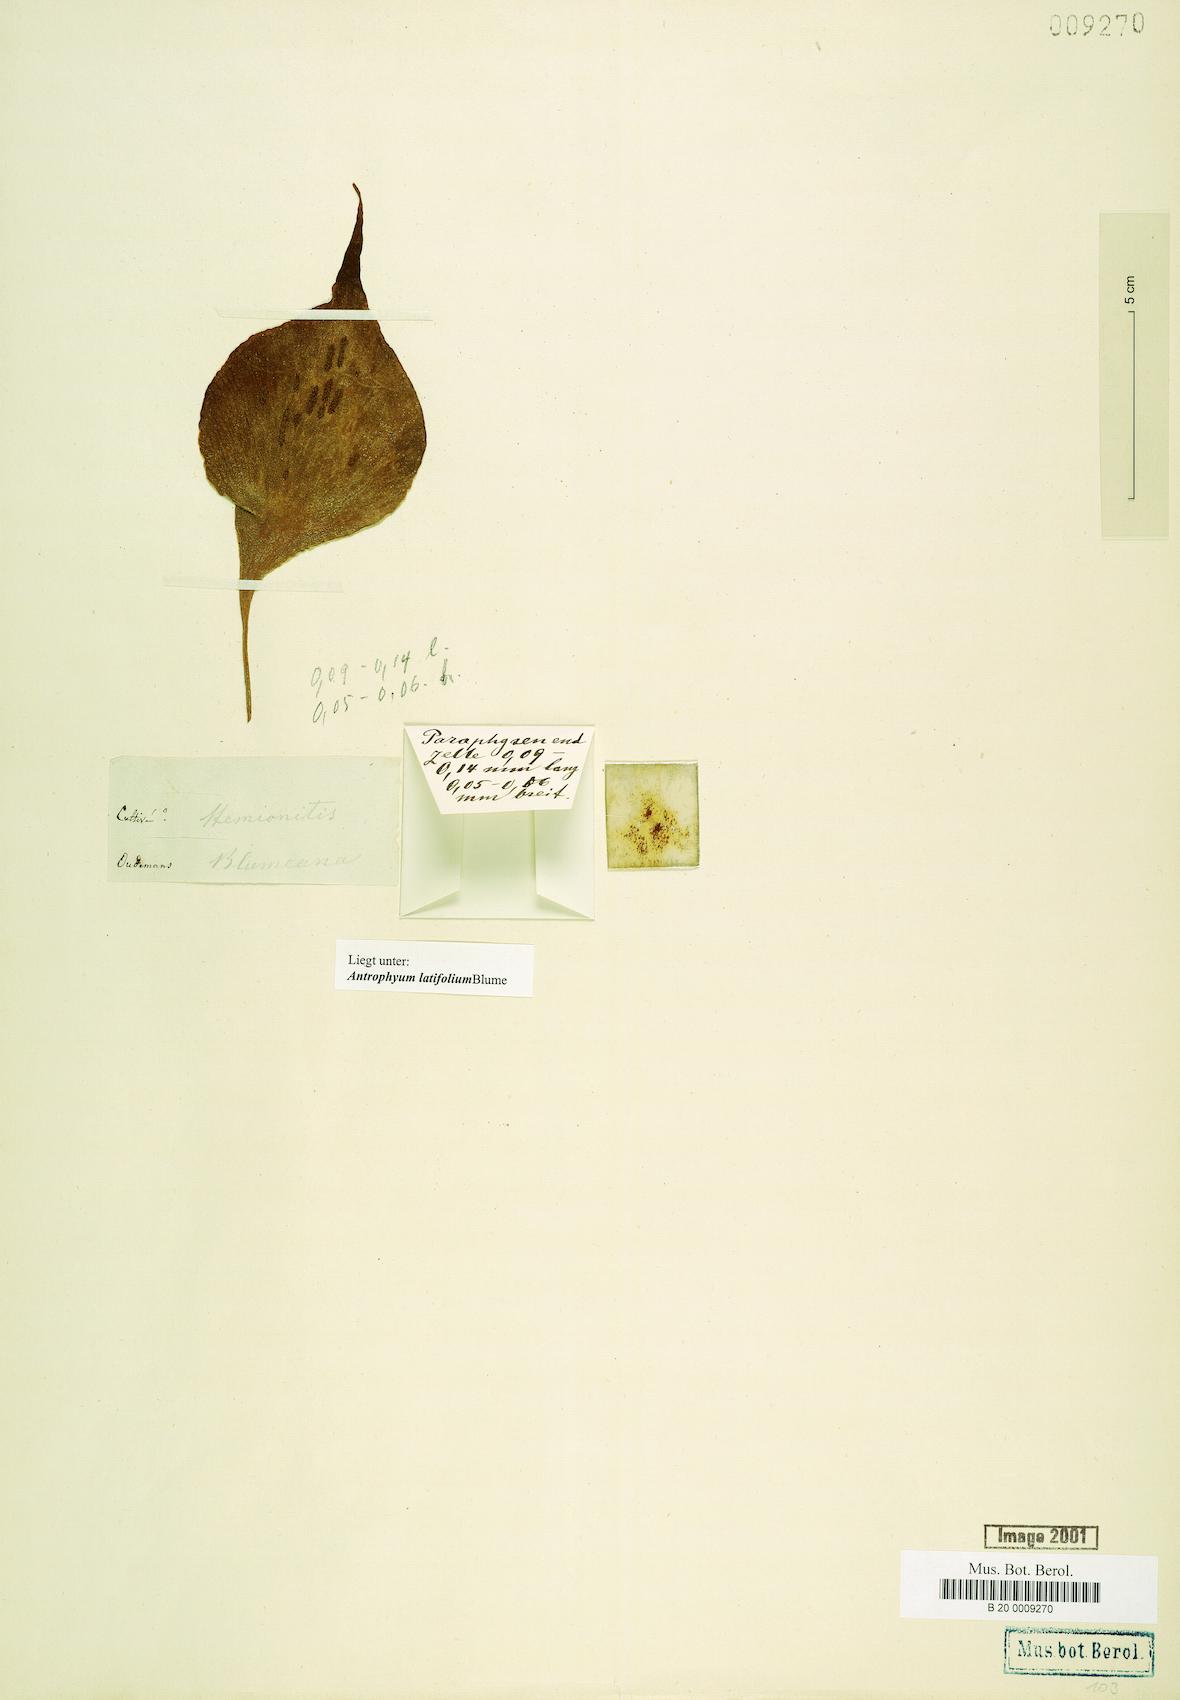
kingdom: Plantae
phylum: Tracheophyta
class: Polypodiopsida
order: Polypodiales
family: Pteridaceae
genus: Antrophyum
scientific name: Antrophyum latifolium
